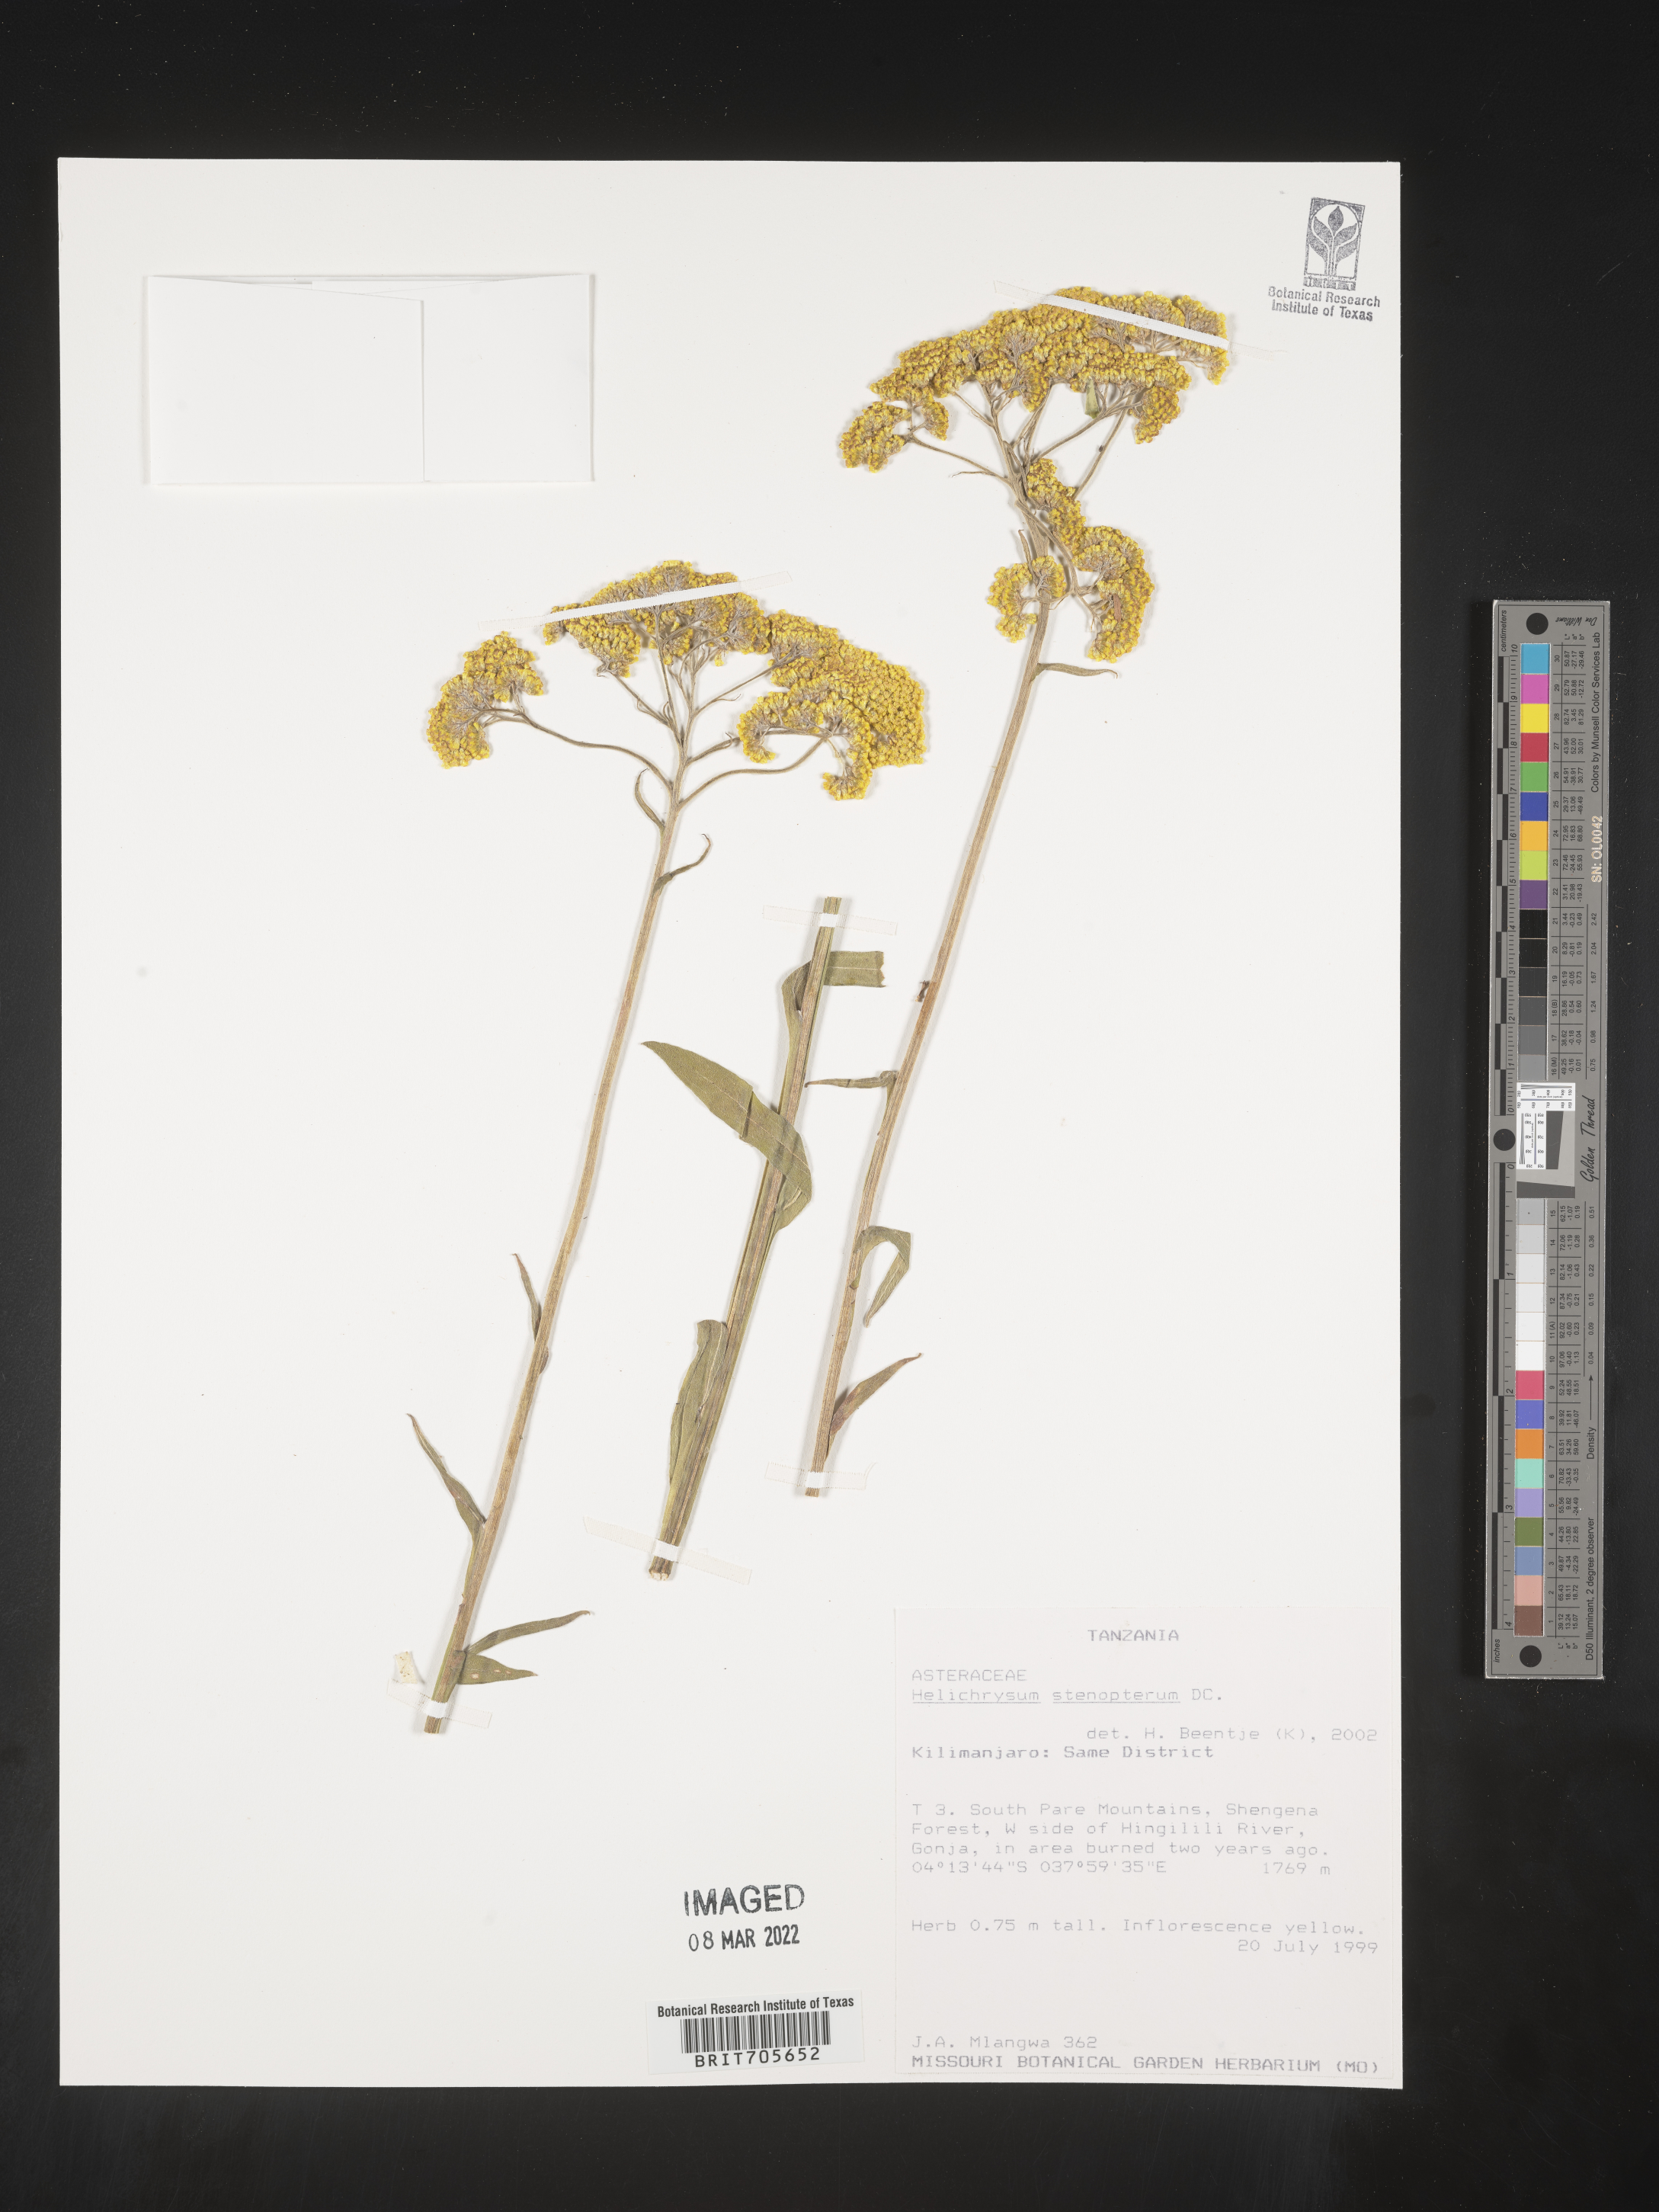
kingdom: Plantae
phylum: Tracheophyta
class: Magnoliopsida
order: Asterales
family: Asteraceae
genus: Helichrysum
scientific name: Helichrysum
